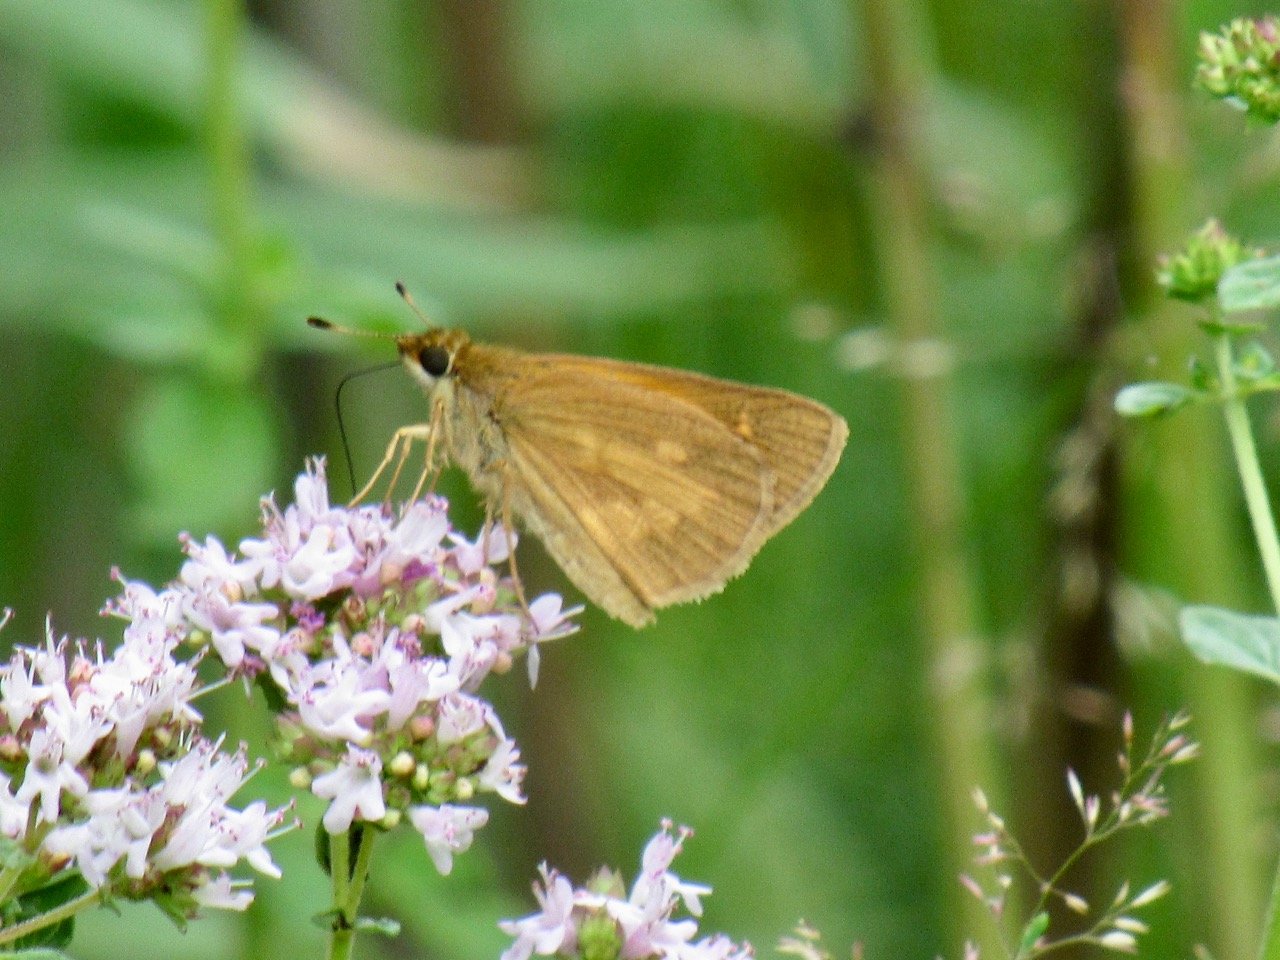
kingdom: Animalia
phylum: Arthropoda
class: Insecta
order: Lepidoptera
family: Hesperiidae
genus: Poanes
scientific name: Poanes viator
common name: Broad-winged Skipper
